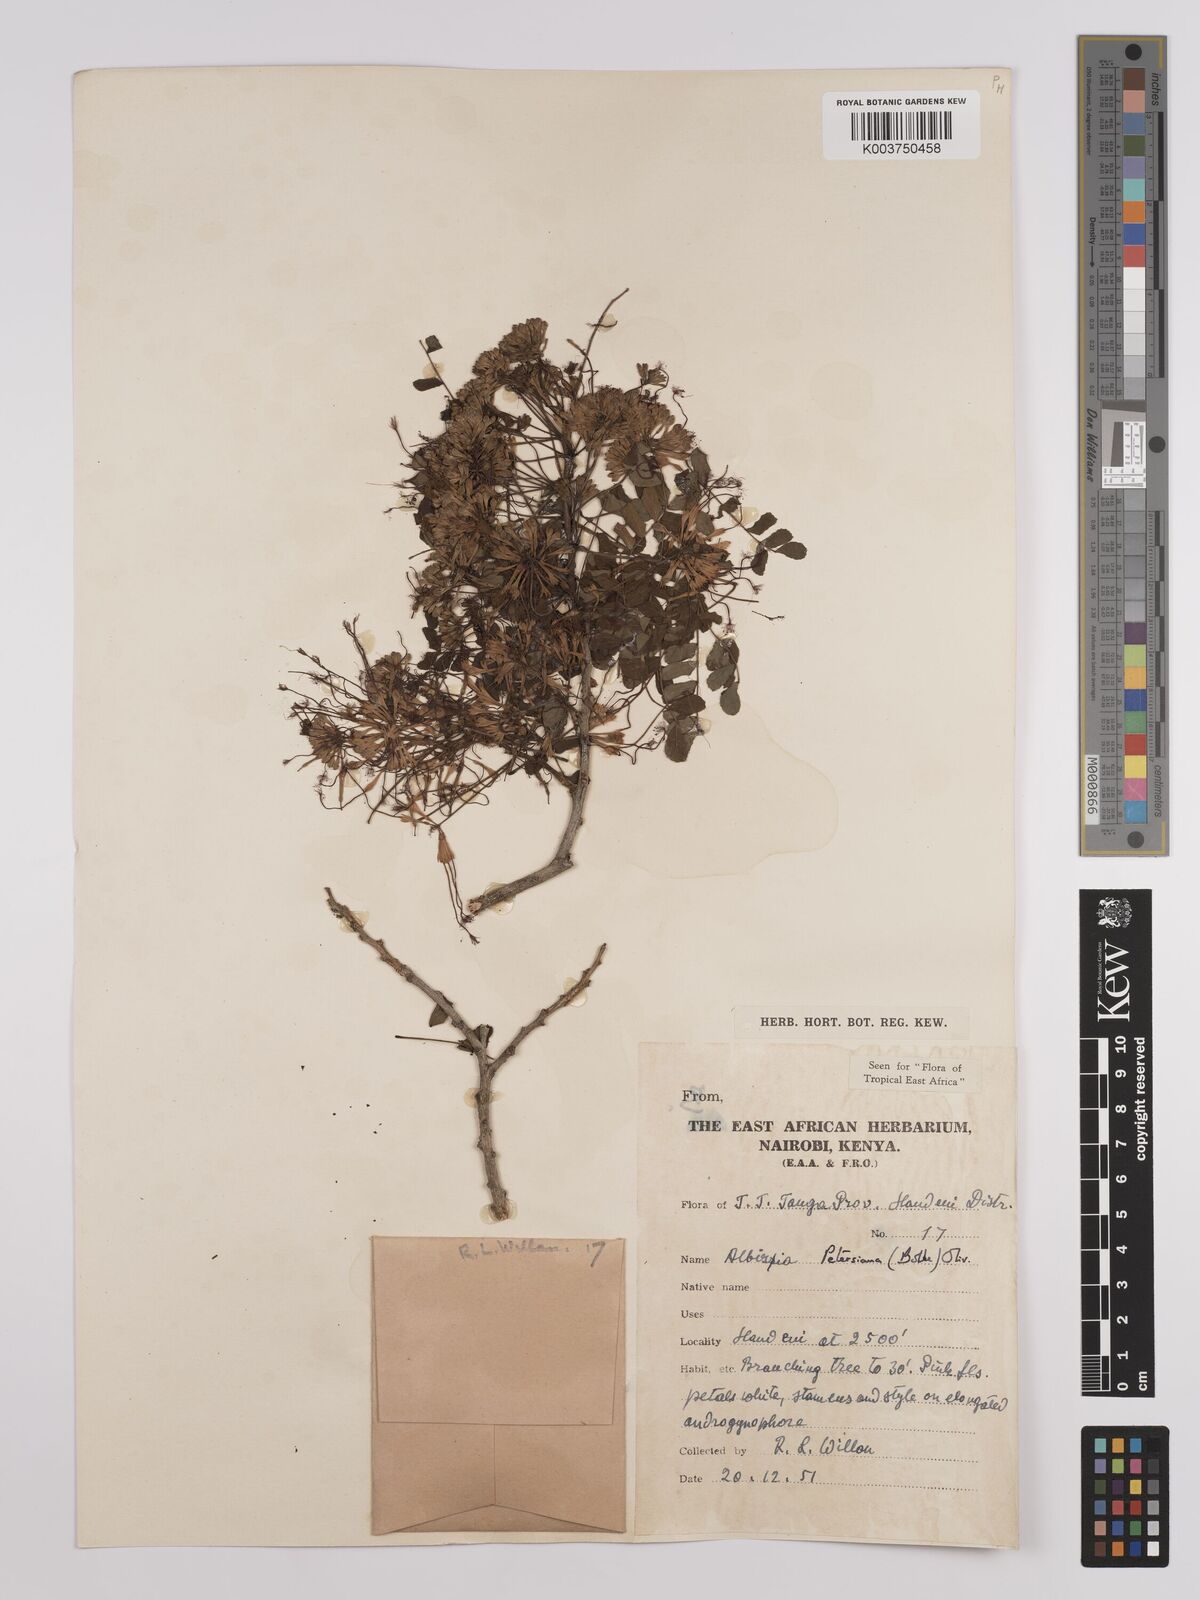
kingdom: Plantae
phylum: Tracheophyta
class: Magnoliopsida
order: Fabales
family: Fabaceae
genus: Albizia
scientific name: Albizia petersiana
